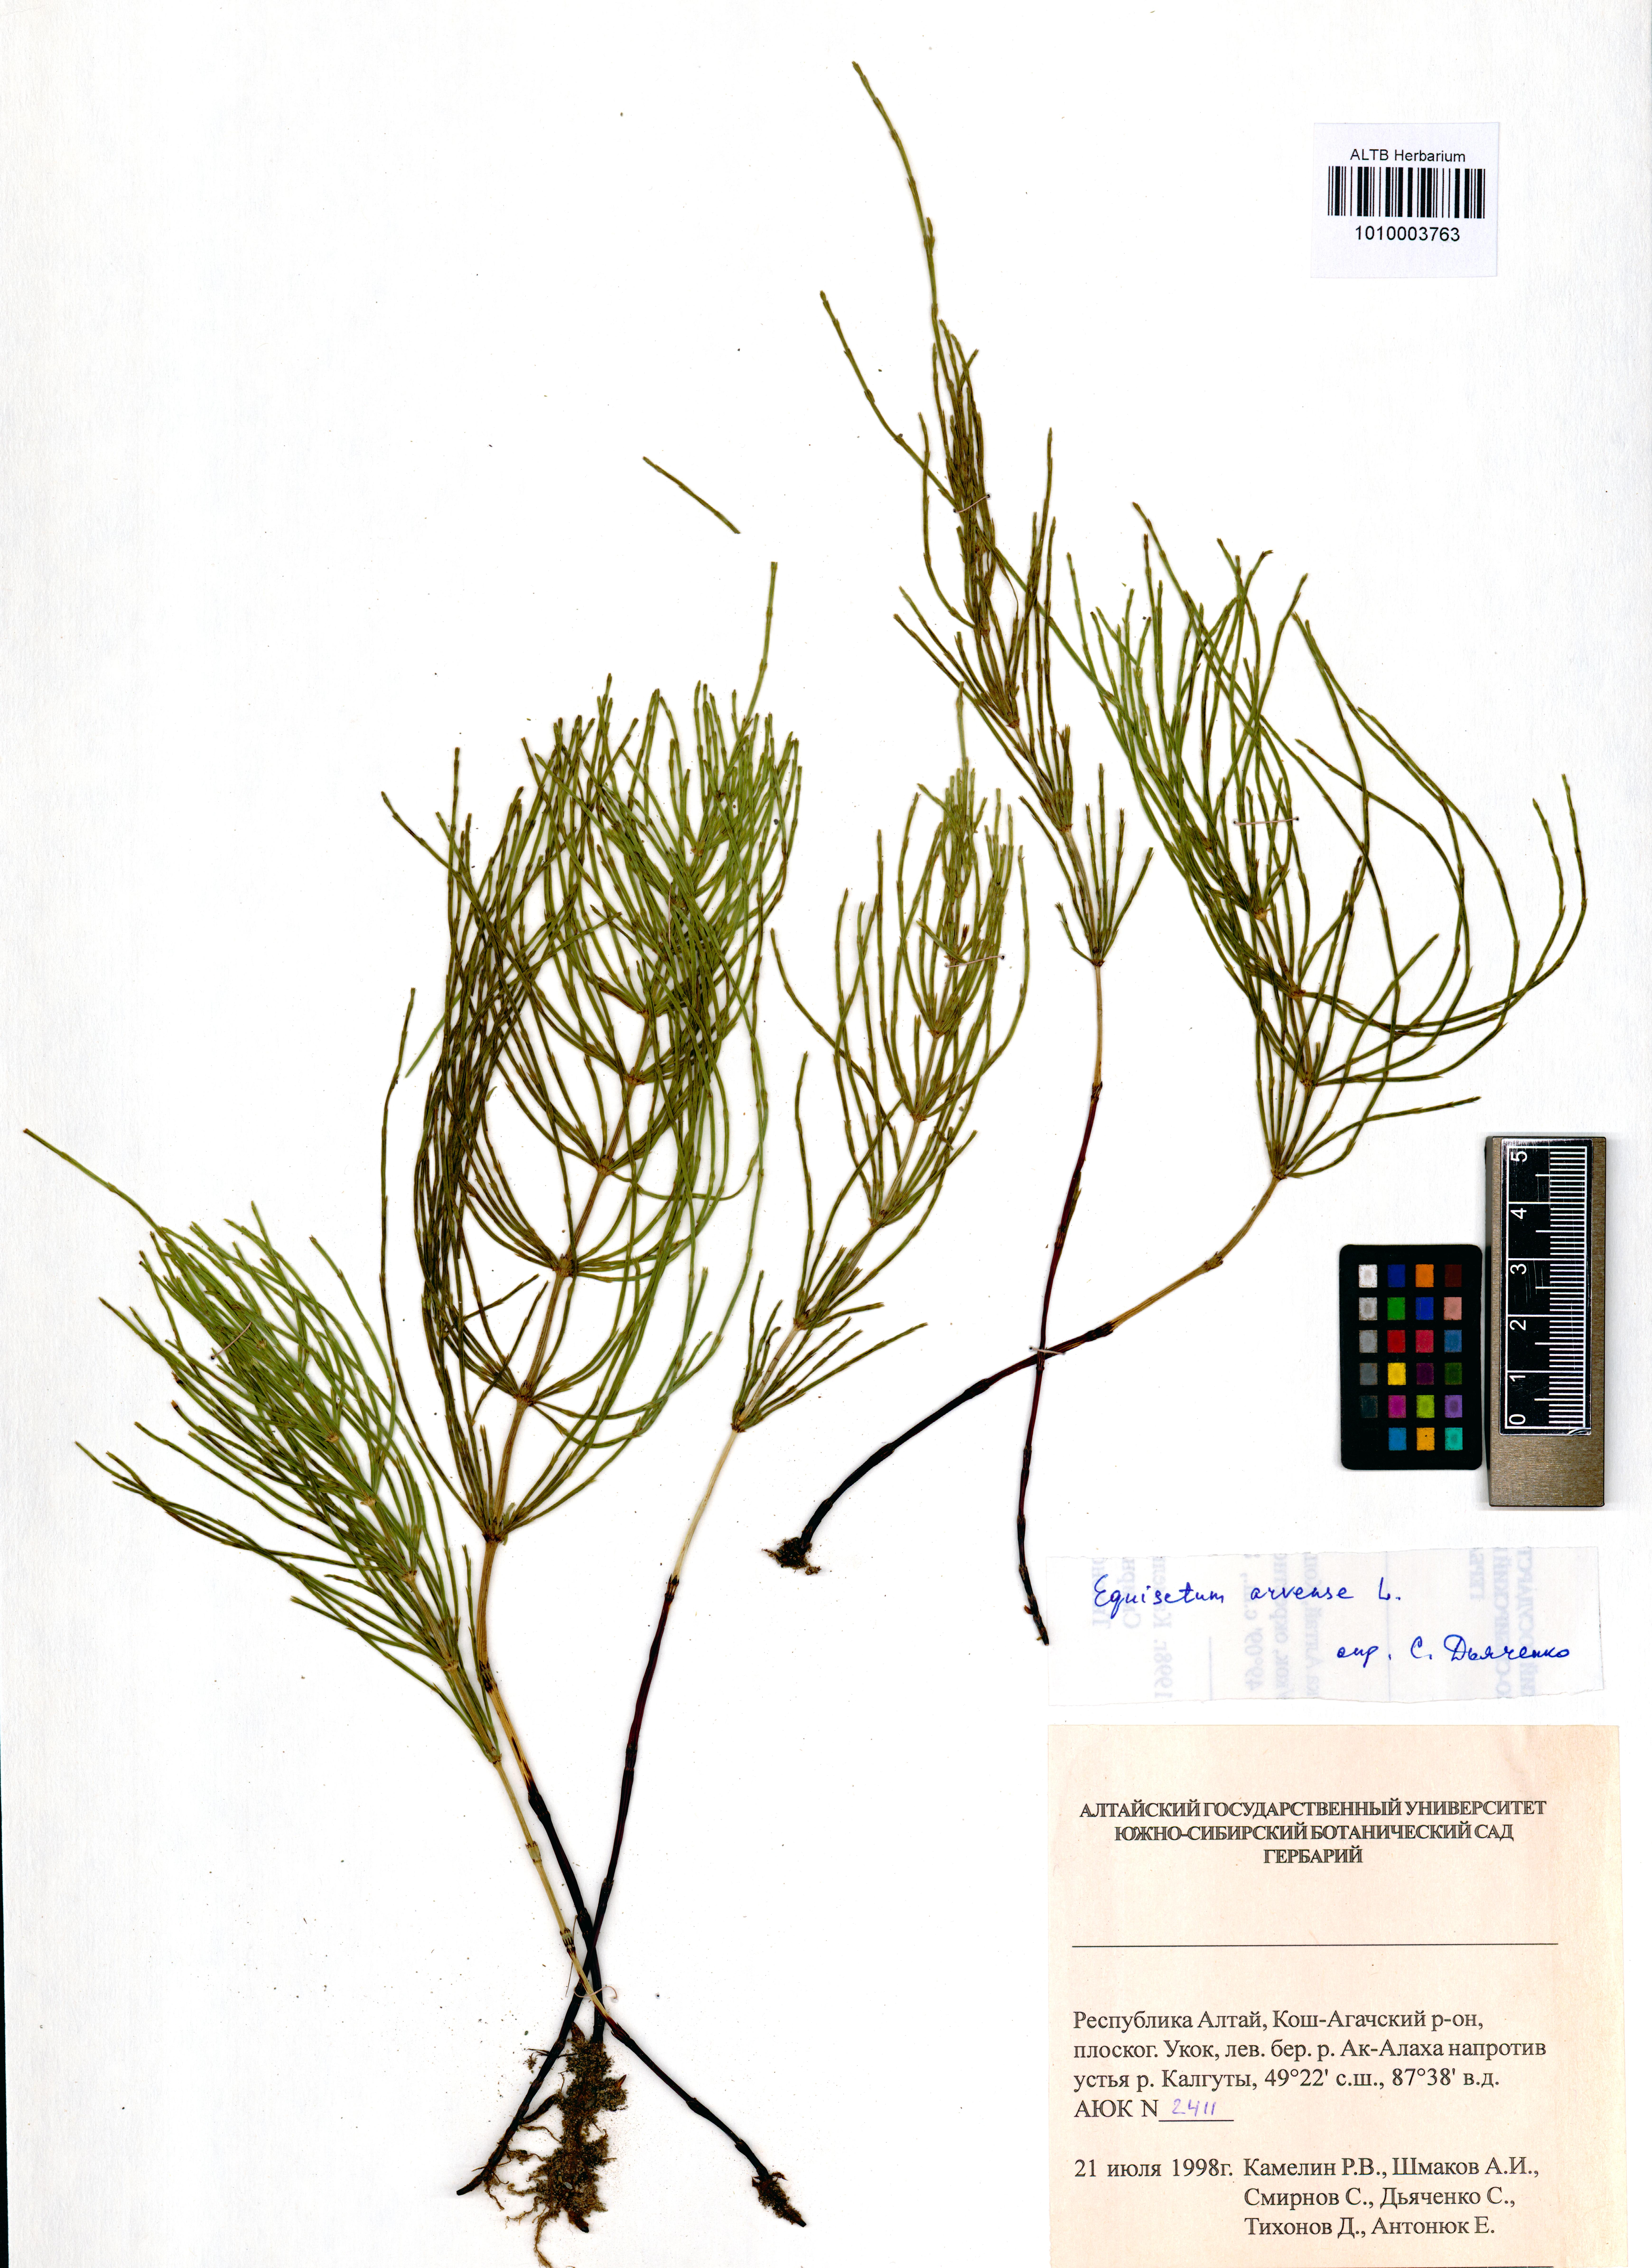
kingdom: Plantae
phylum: Tracheophyta
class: Polypodiopsida
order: Equisetales
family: Equisetaceae
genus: Equisetum
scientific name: Equisetum arvense
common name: Field horsetail
